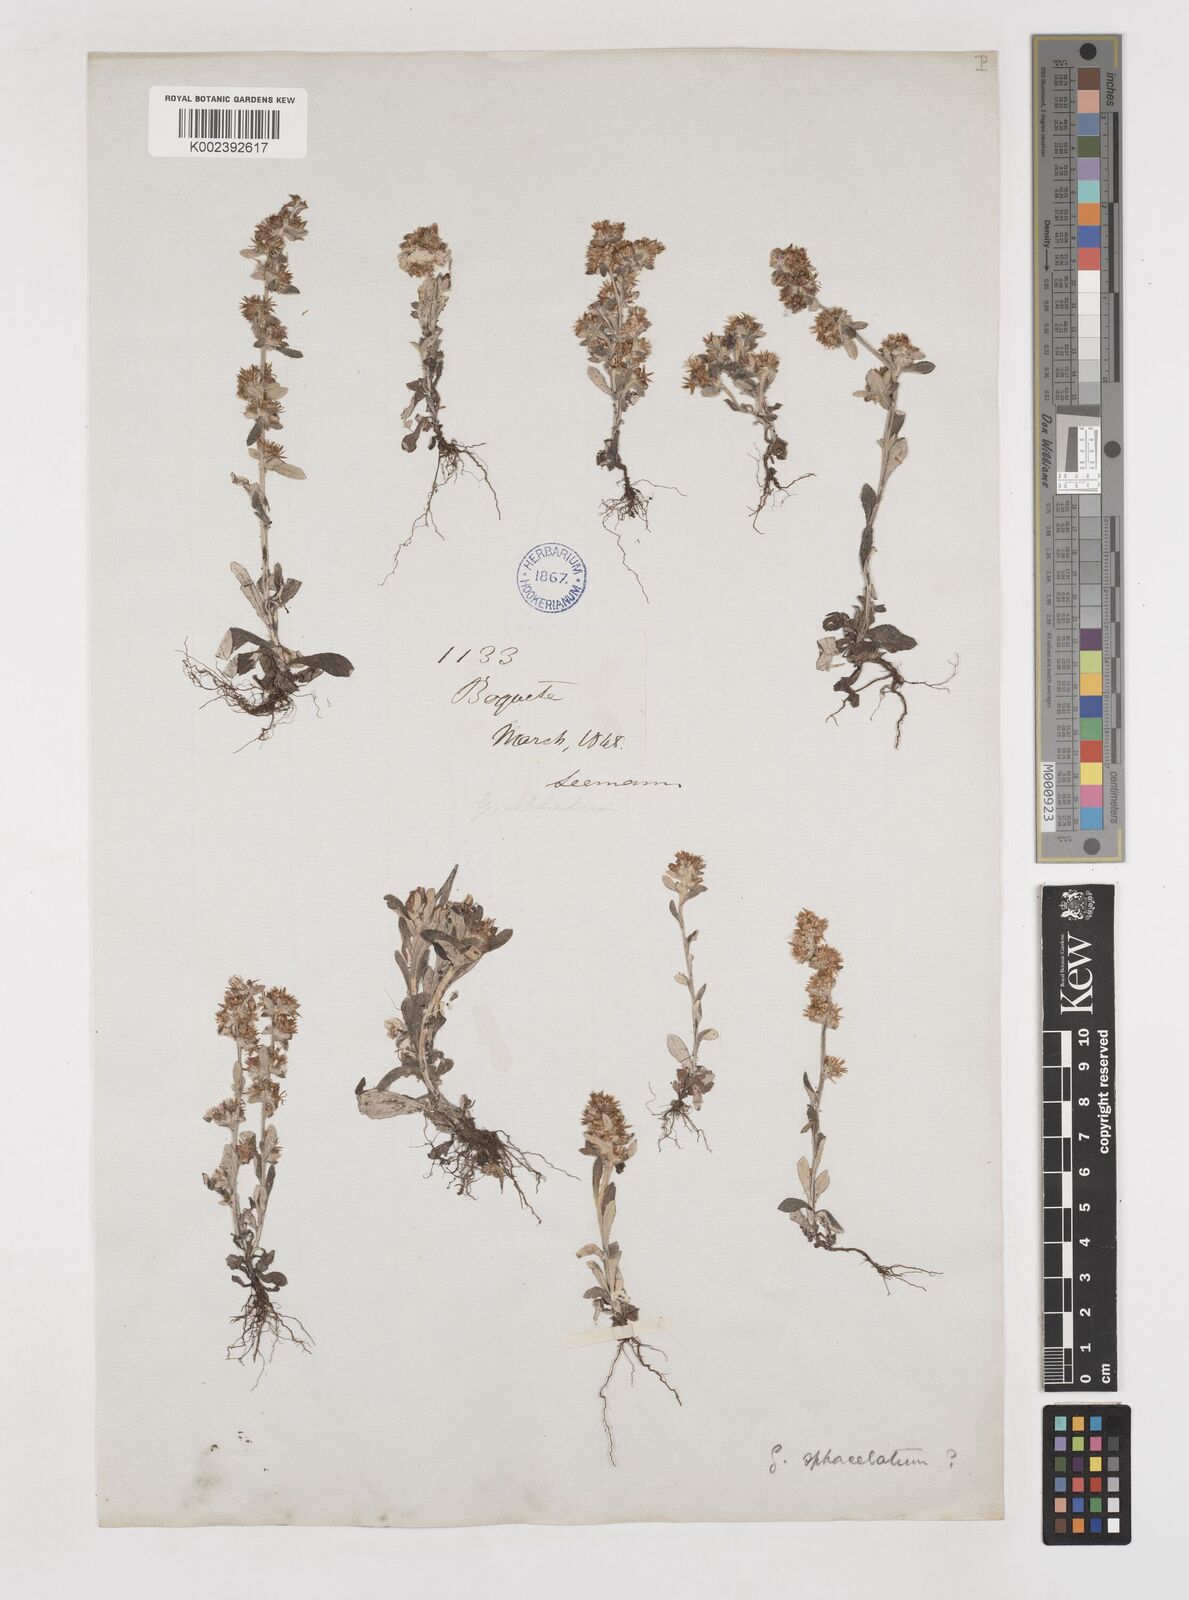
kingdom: Plantae
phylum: Tracheophyta
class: Magnoliopsida
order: Asterales
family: Asteraceae
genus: Gamochaeta
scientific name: Gamochaeta sphacelata
